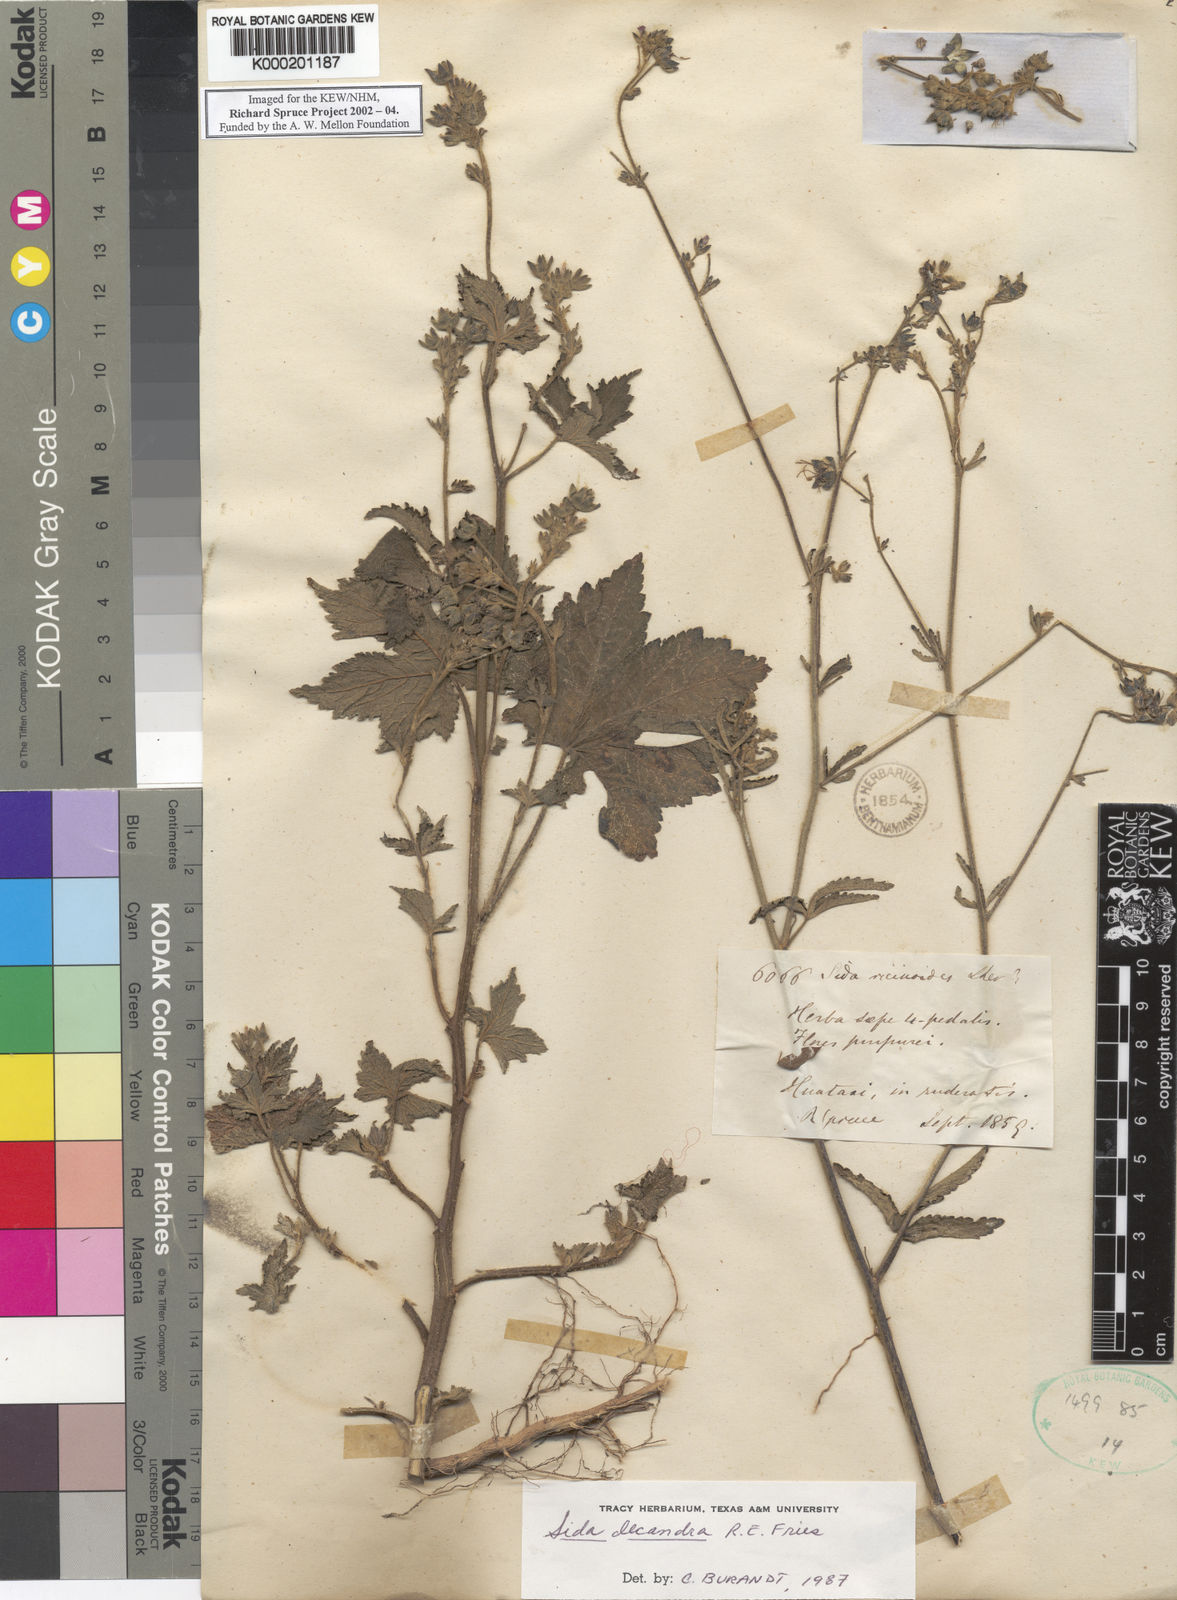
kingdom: Plantae
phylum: Tracheophyta
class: Magnoliopsida
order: Malvales
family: Malvaceae
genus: Sida
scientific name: Sida decandra
